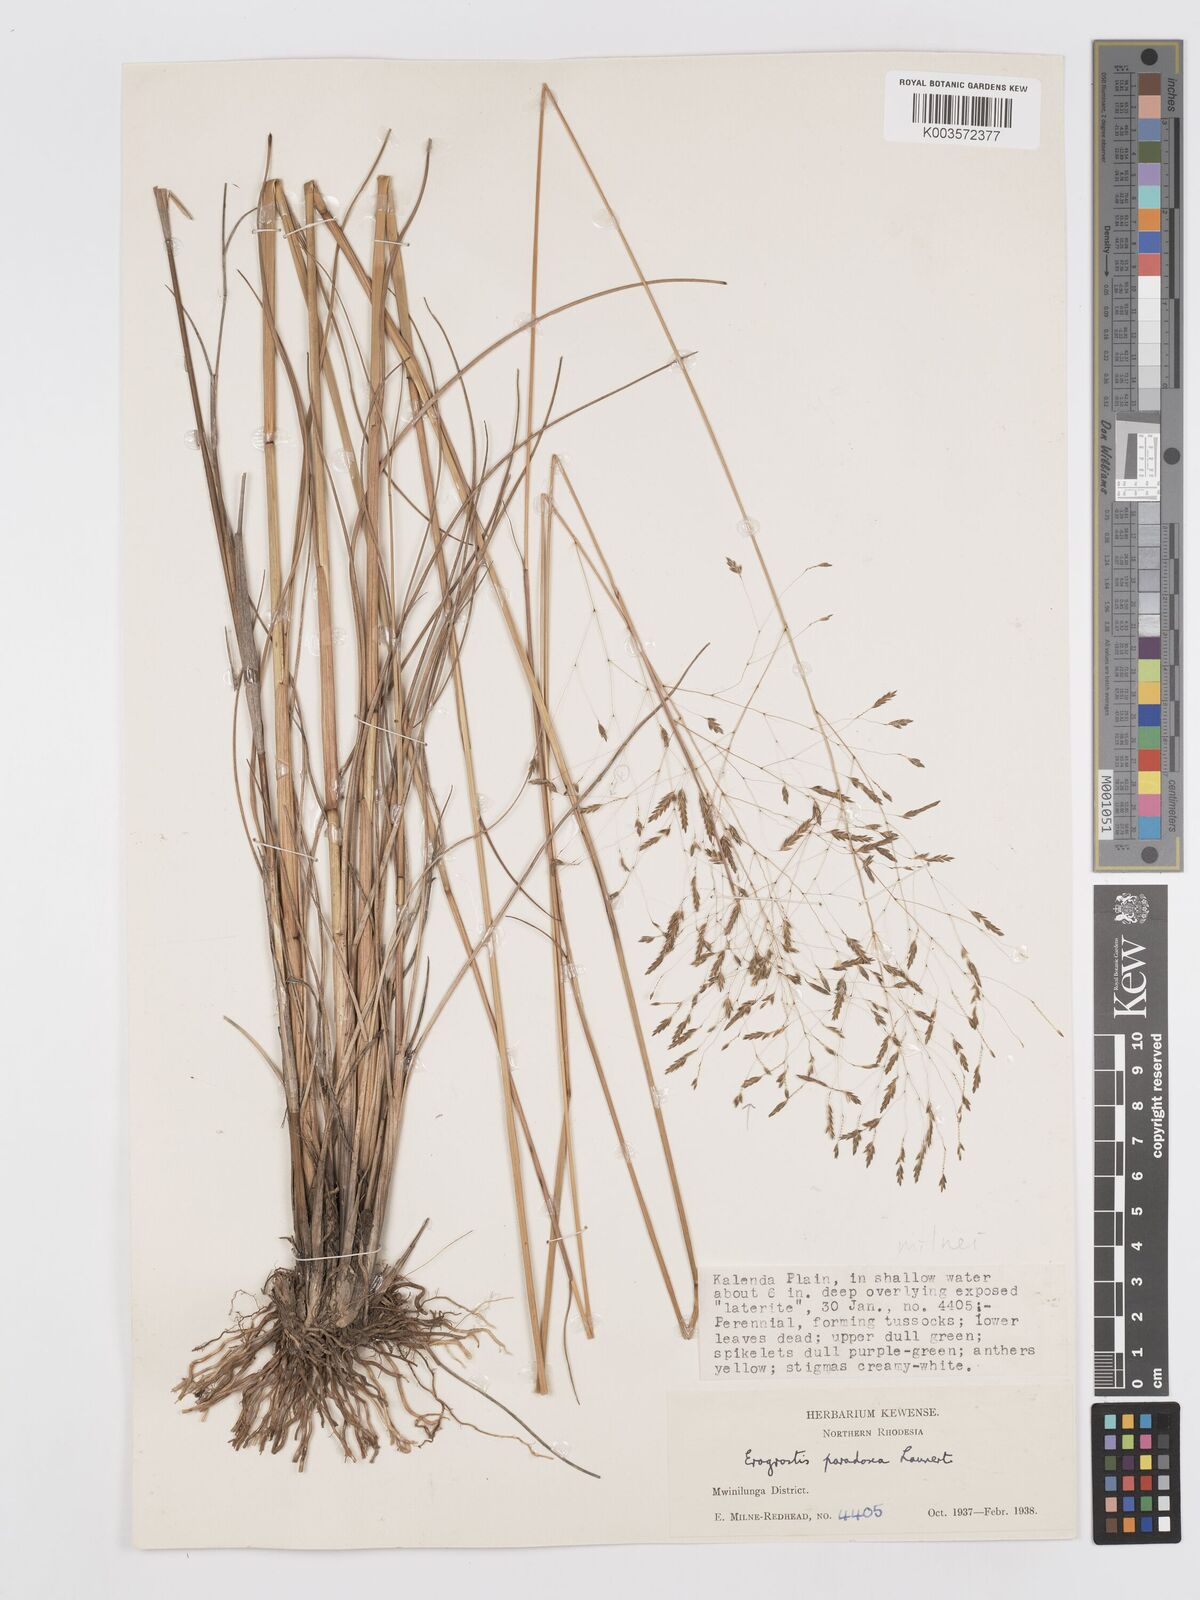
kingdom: Plantae
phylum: Tracheophyta
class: Liliopsida
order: Poales
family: Poaceae
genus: Eragrostis
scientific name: Eragrostis milnei
